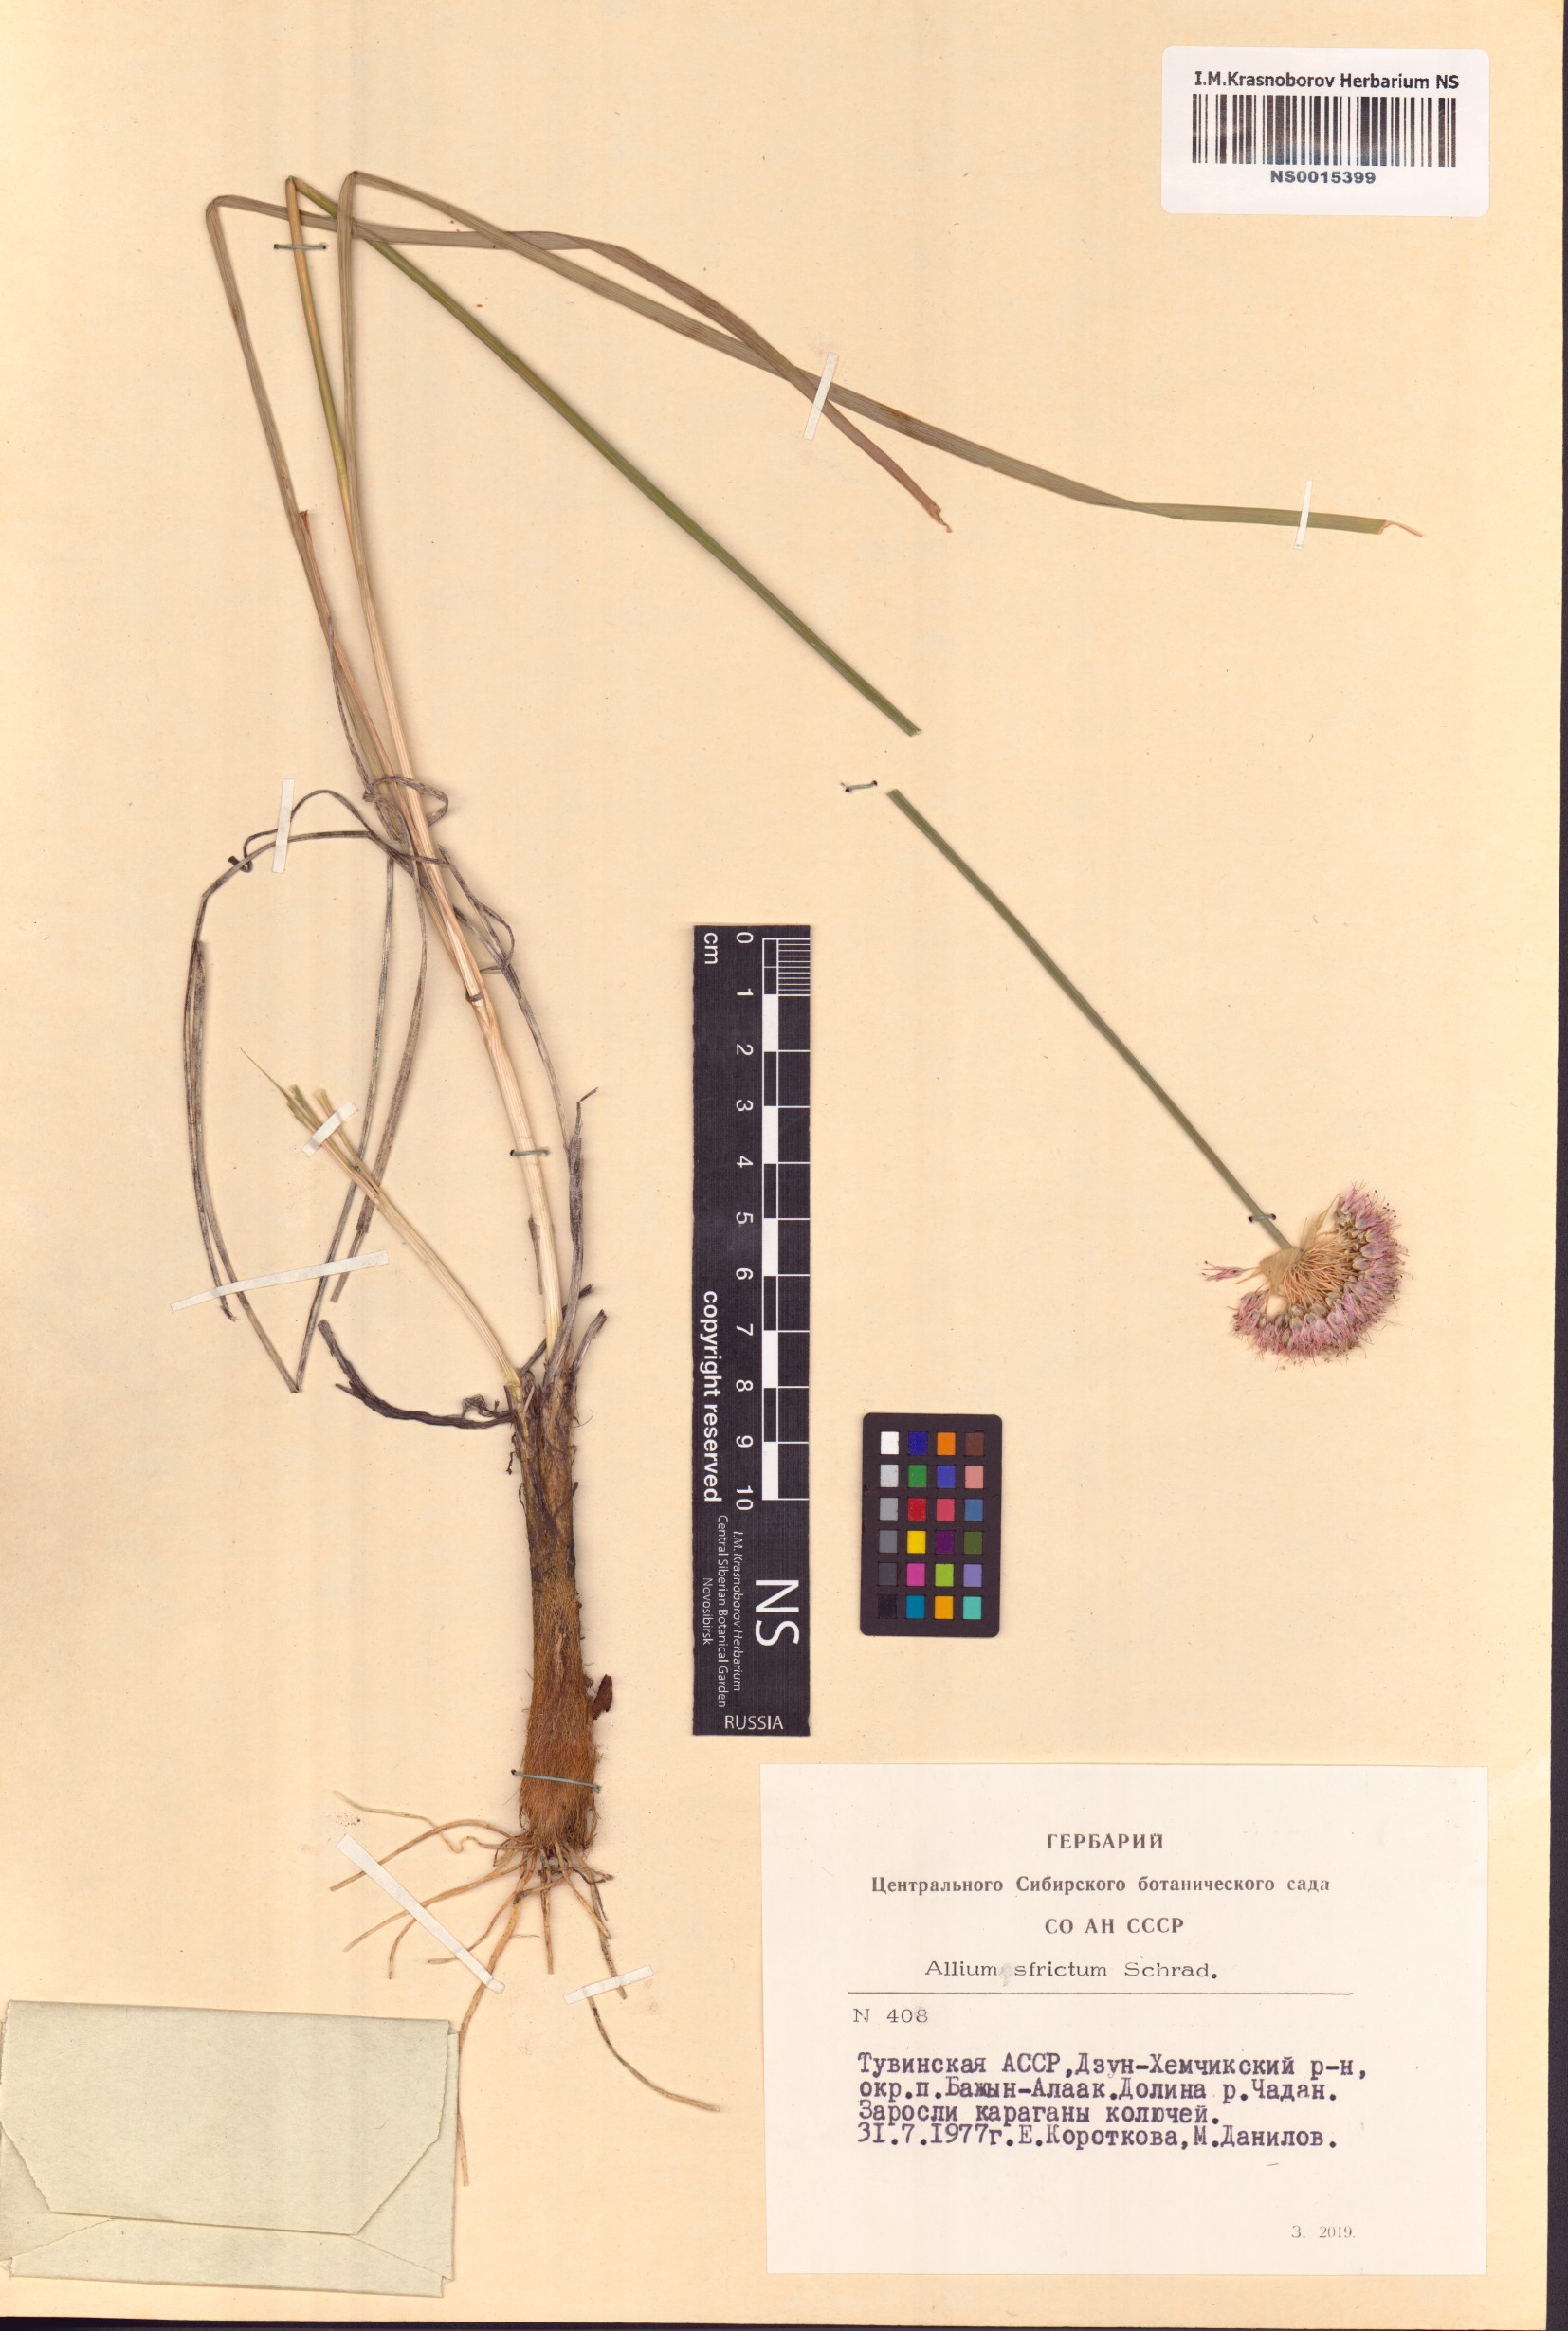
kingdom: Plantae
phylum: Tracheophyta
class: Liliopsida
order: Asparagales
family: Amaryllidaceae
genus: Allium
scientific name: Allium strictum
